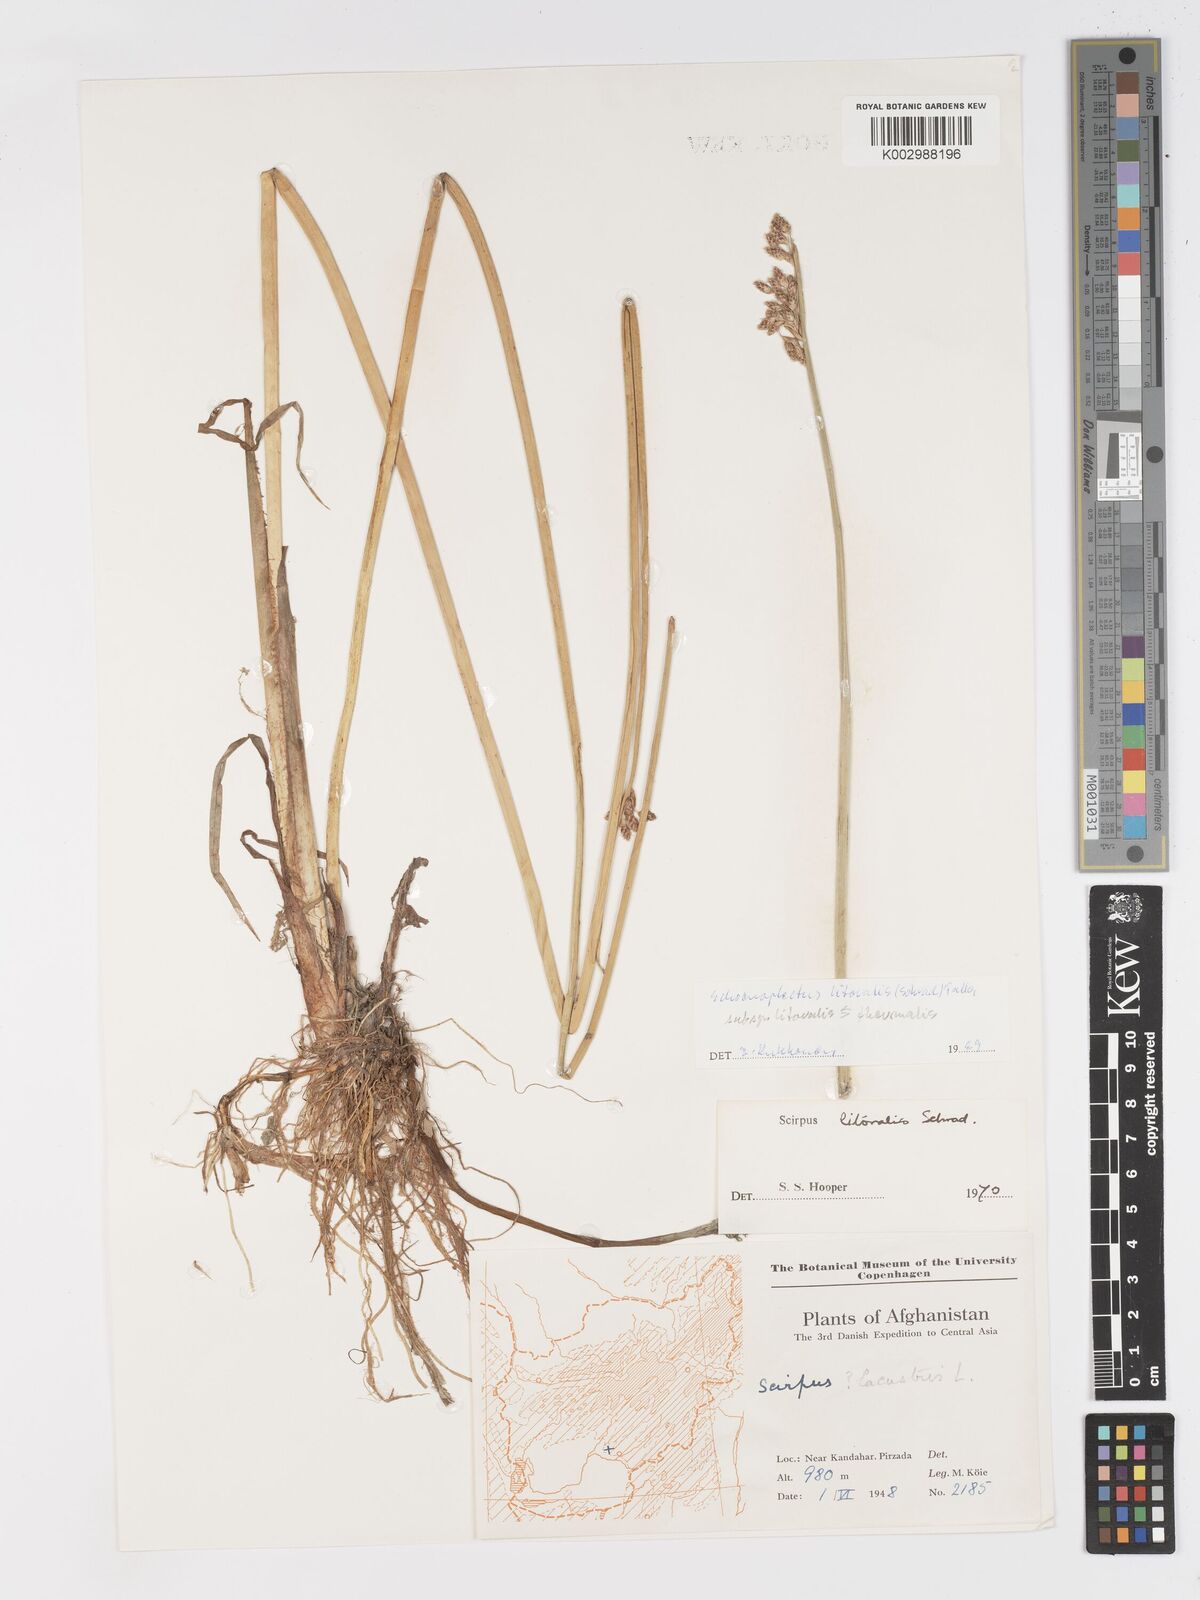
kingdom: Plantae
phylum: Tracheophyta
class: Liliopsida
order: Poales
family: Cyperaceae
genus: Schoenoplectus
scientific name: Schoenoplectus litoralis
